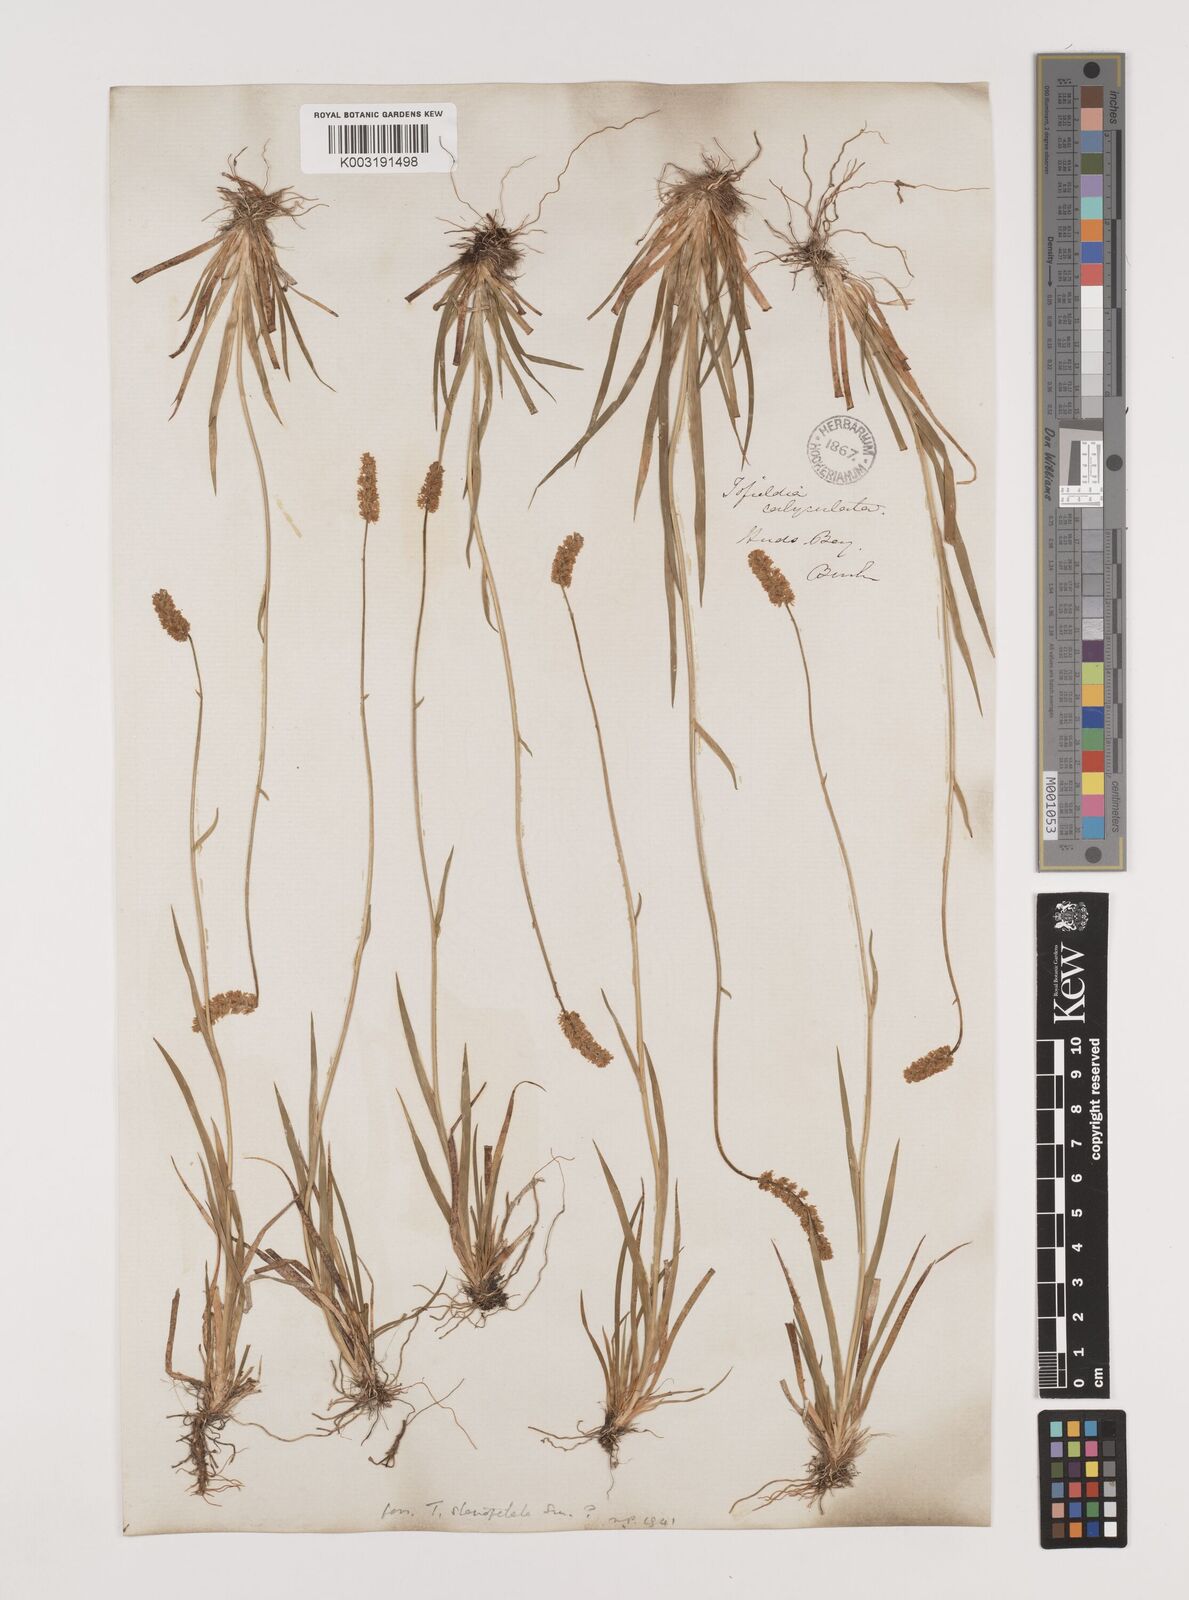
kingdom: Plantae
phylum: Tracheophyta
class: Liliopsida
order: Alismatales
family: Tofieldiaceae
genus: Tofieldia
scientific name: Tofieldia
